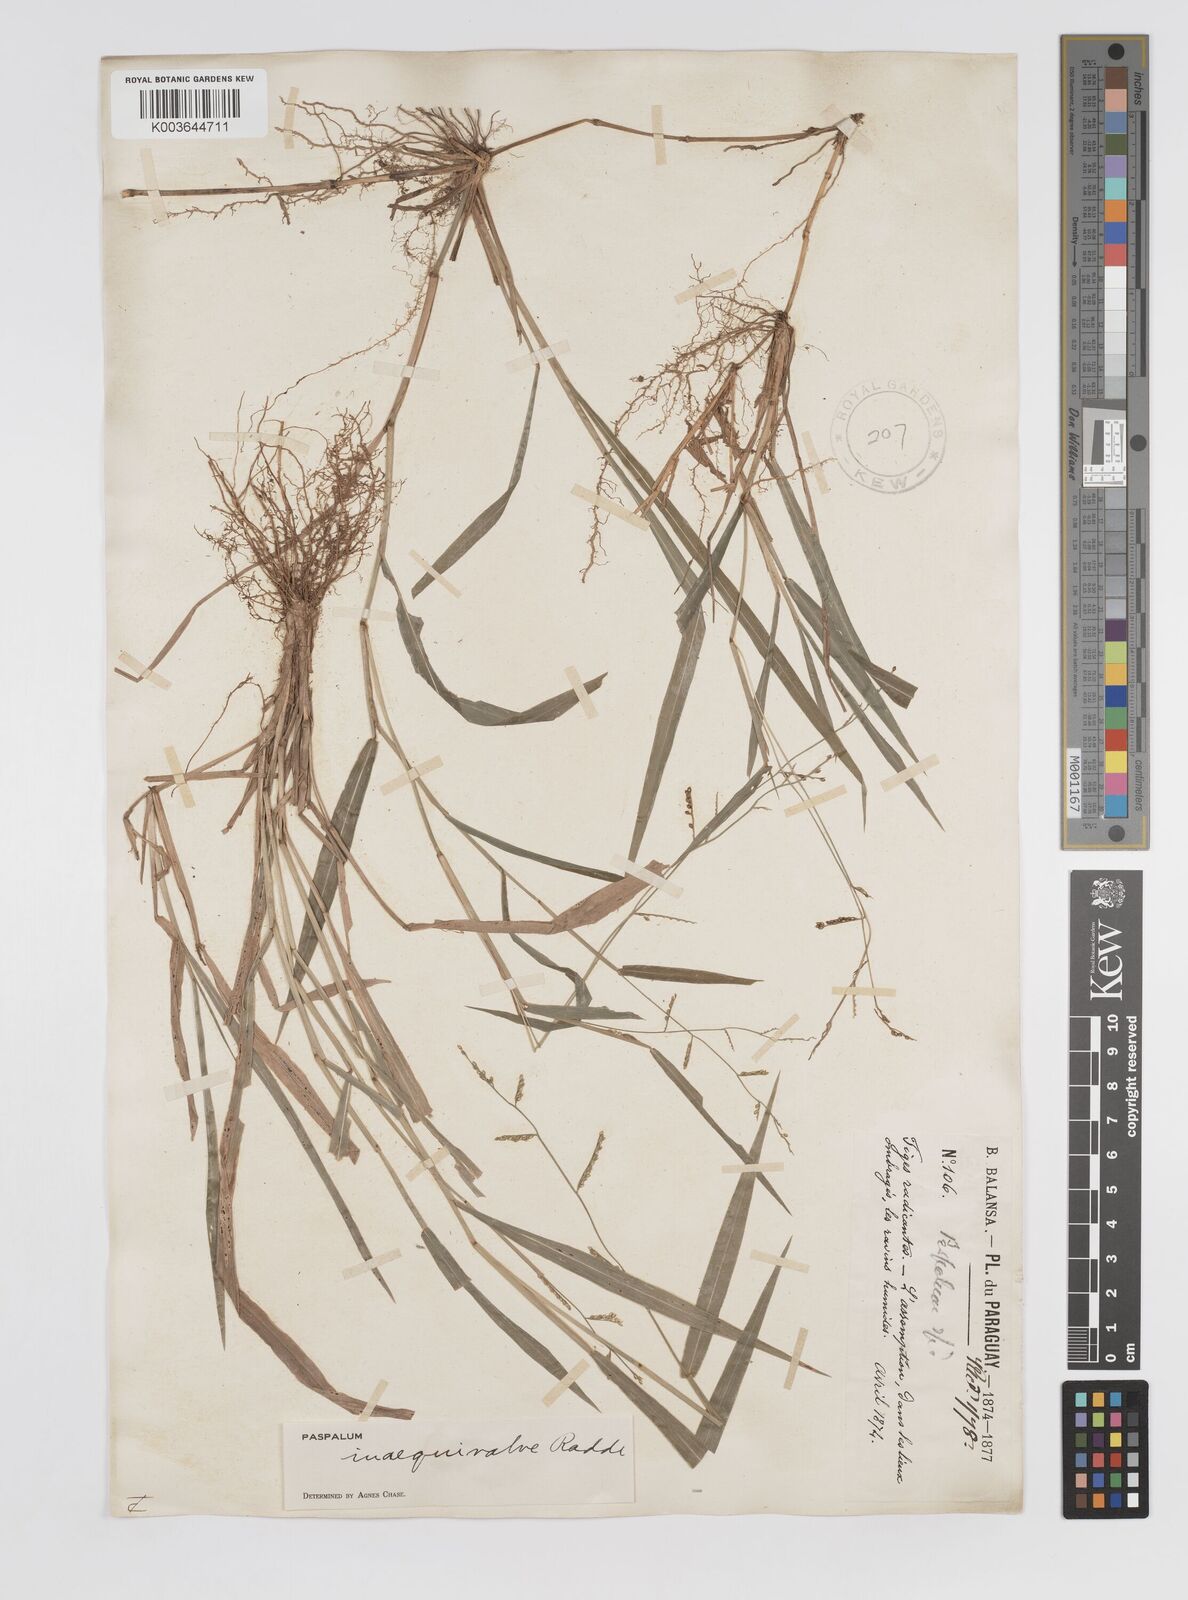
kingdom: Plantae
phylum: Tracheophyta
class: Liliopsida
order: Poales
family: Poaceae
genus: Paspalum
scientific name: Paspalum inaequivalve
